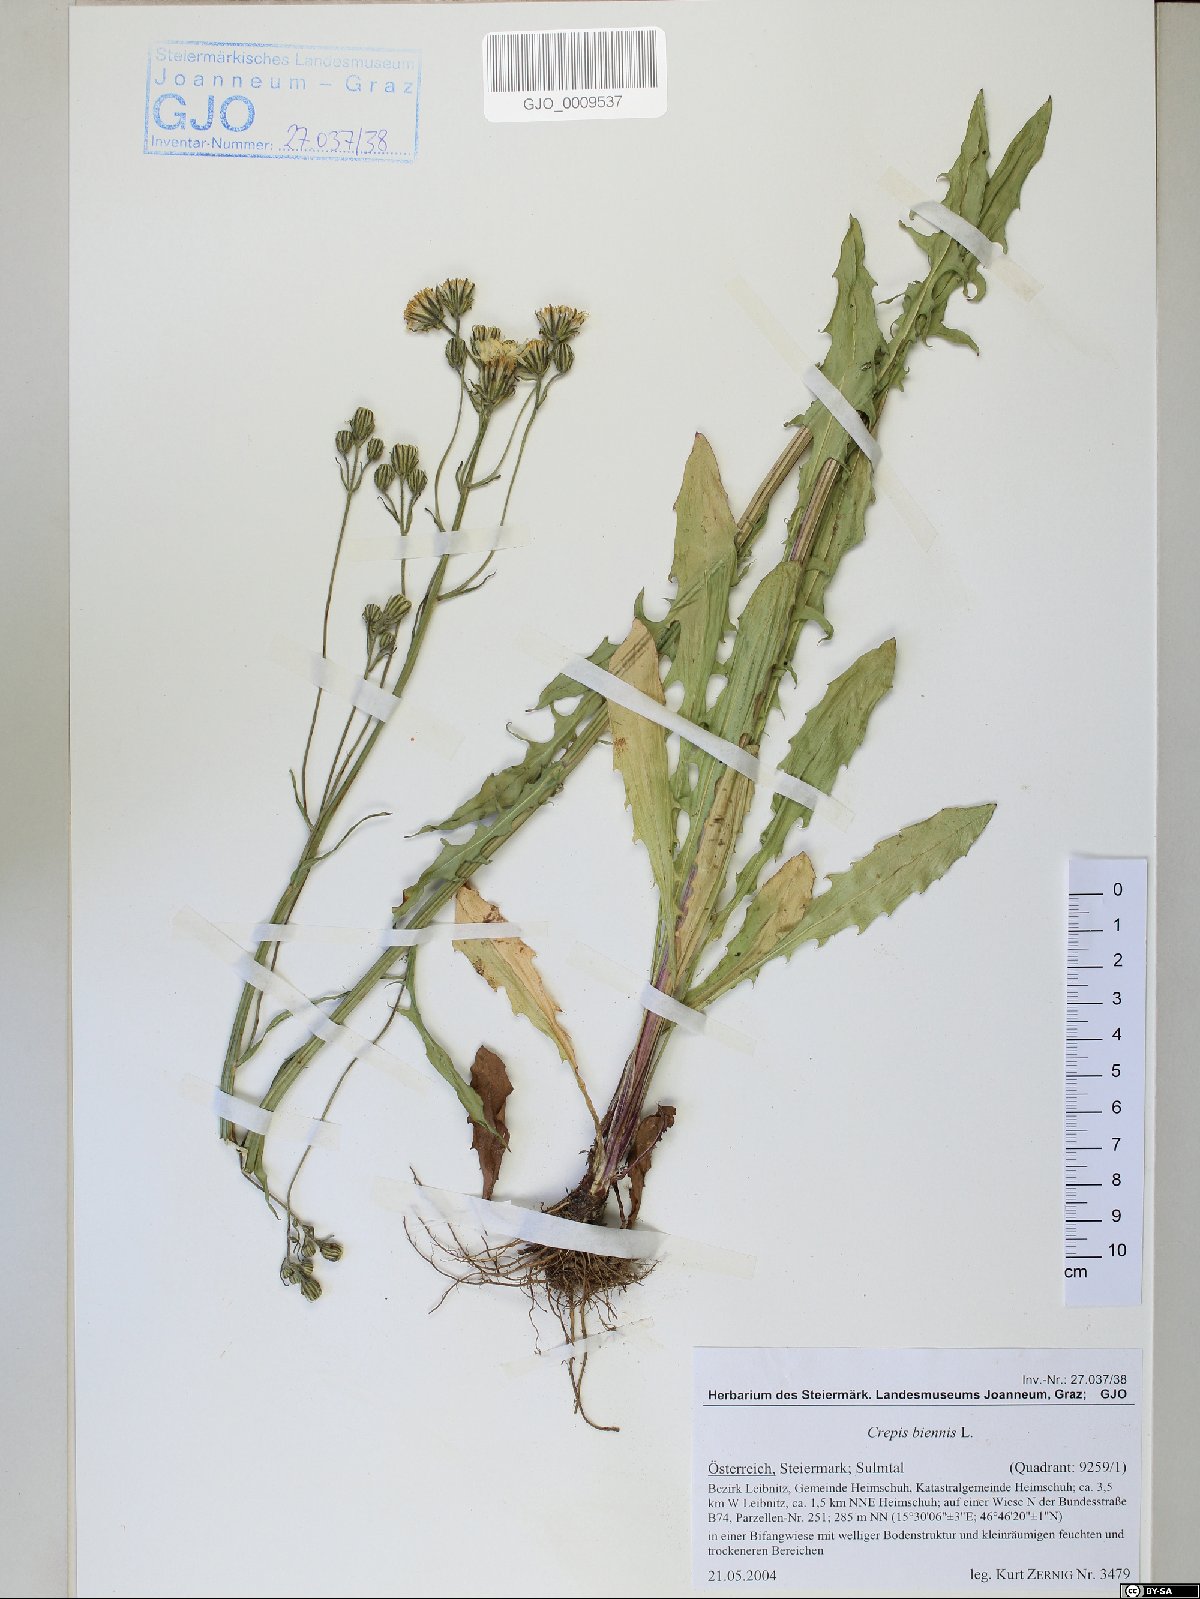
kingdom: Plantae
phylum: Tracheophyta
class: Magnoliopsida
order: Asterales
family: Asteraceae
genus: Crepis
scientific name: Crepis biennis
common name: Rough hawk's-beard
